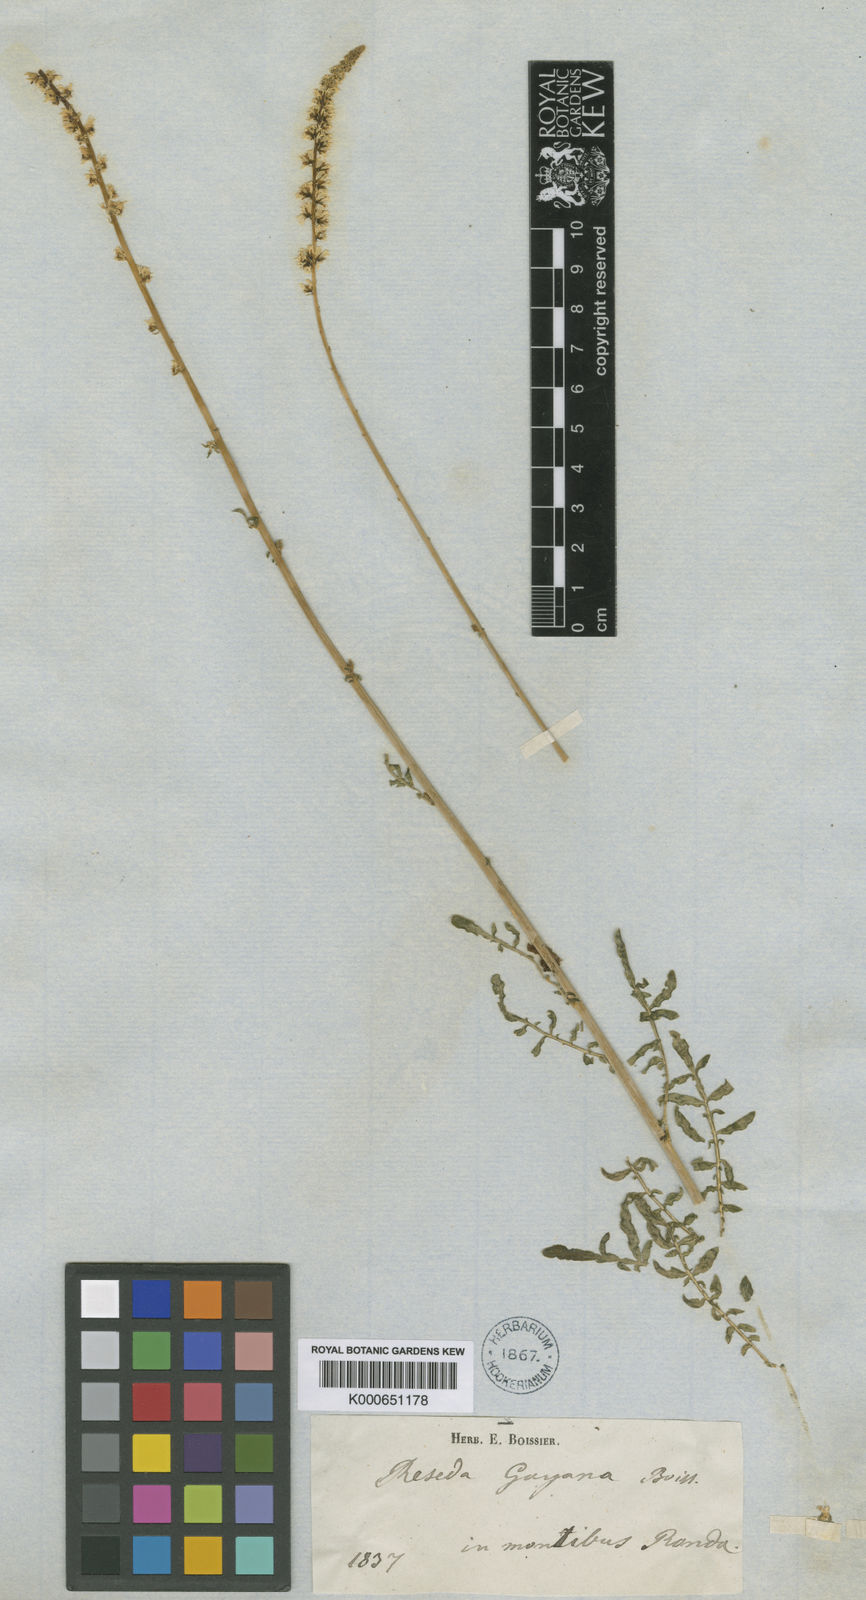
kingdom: Plantae
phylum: Tracheophyta
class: Magnoliopsida
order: Brassicales
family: Resedaceae
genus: Reseda
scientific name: Reseda undata
